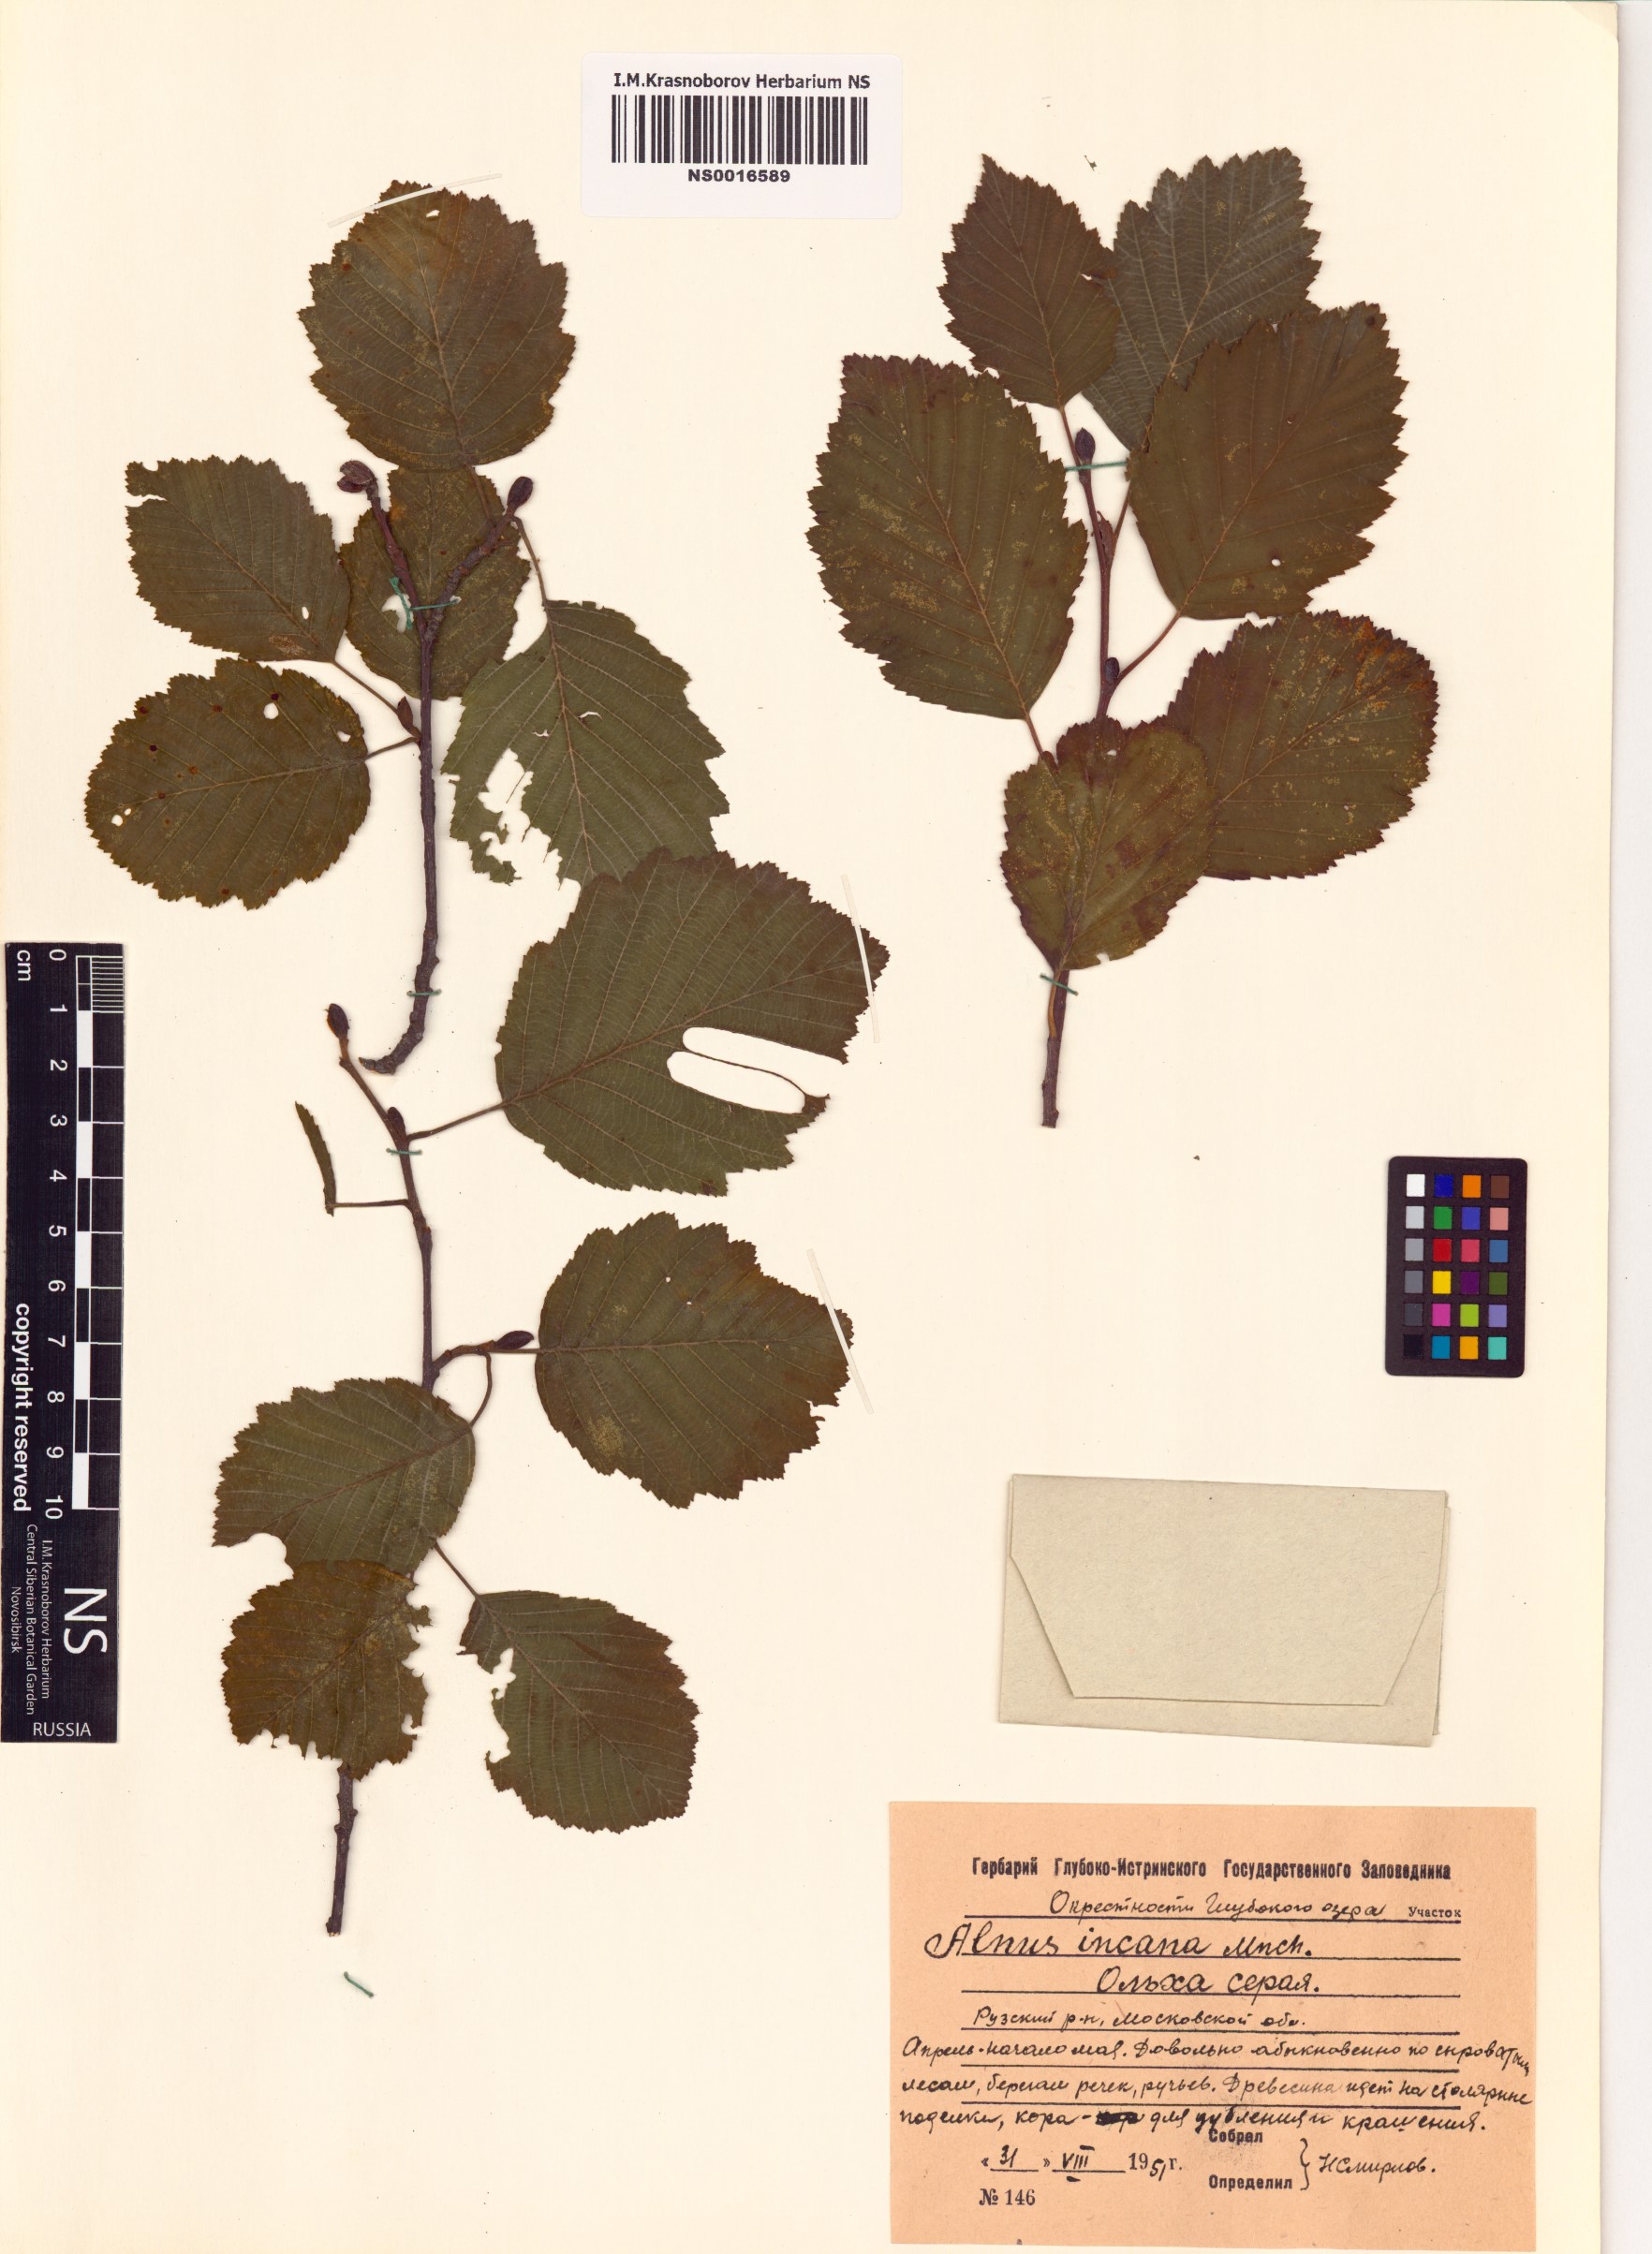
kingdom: Plantae
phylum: Tracheophyta
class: Magnoliopsida
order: Fagales
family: Betulaceae
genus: Alnus
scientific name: Alnus incana
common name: Grey alder
